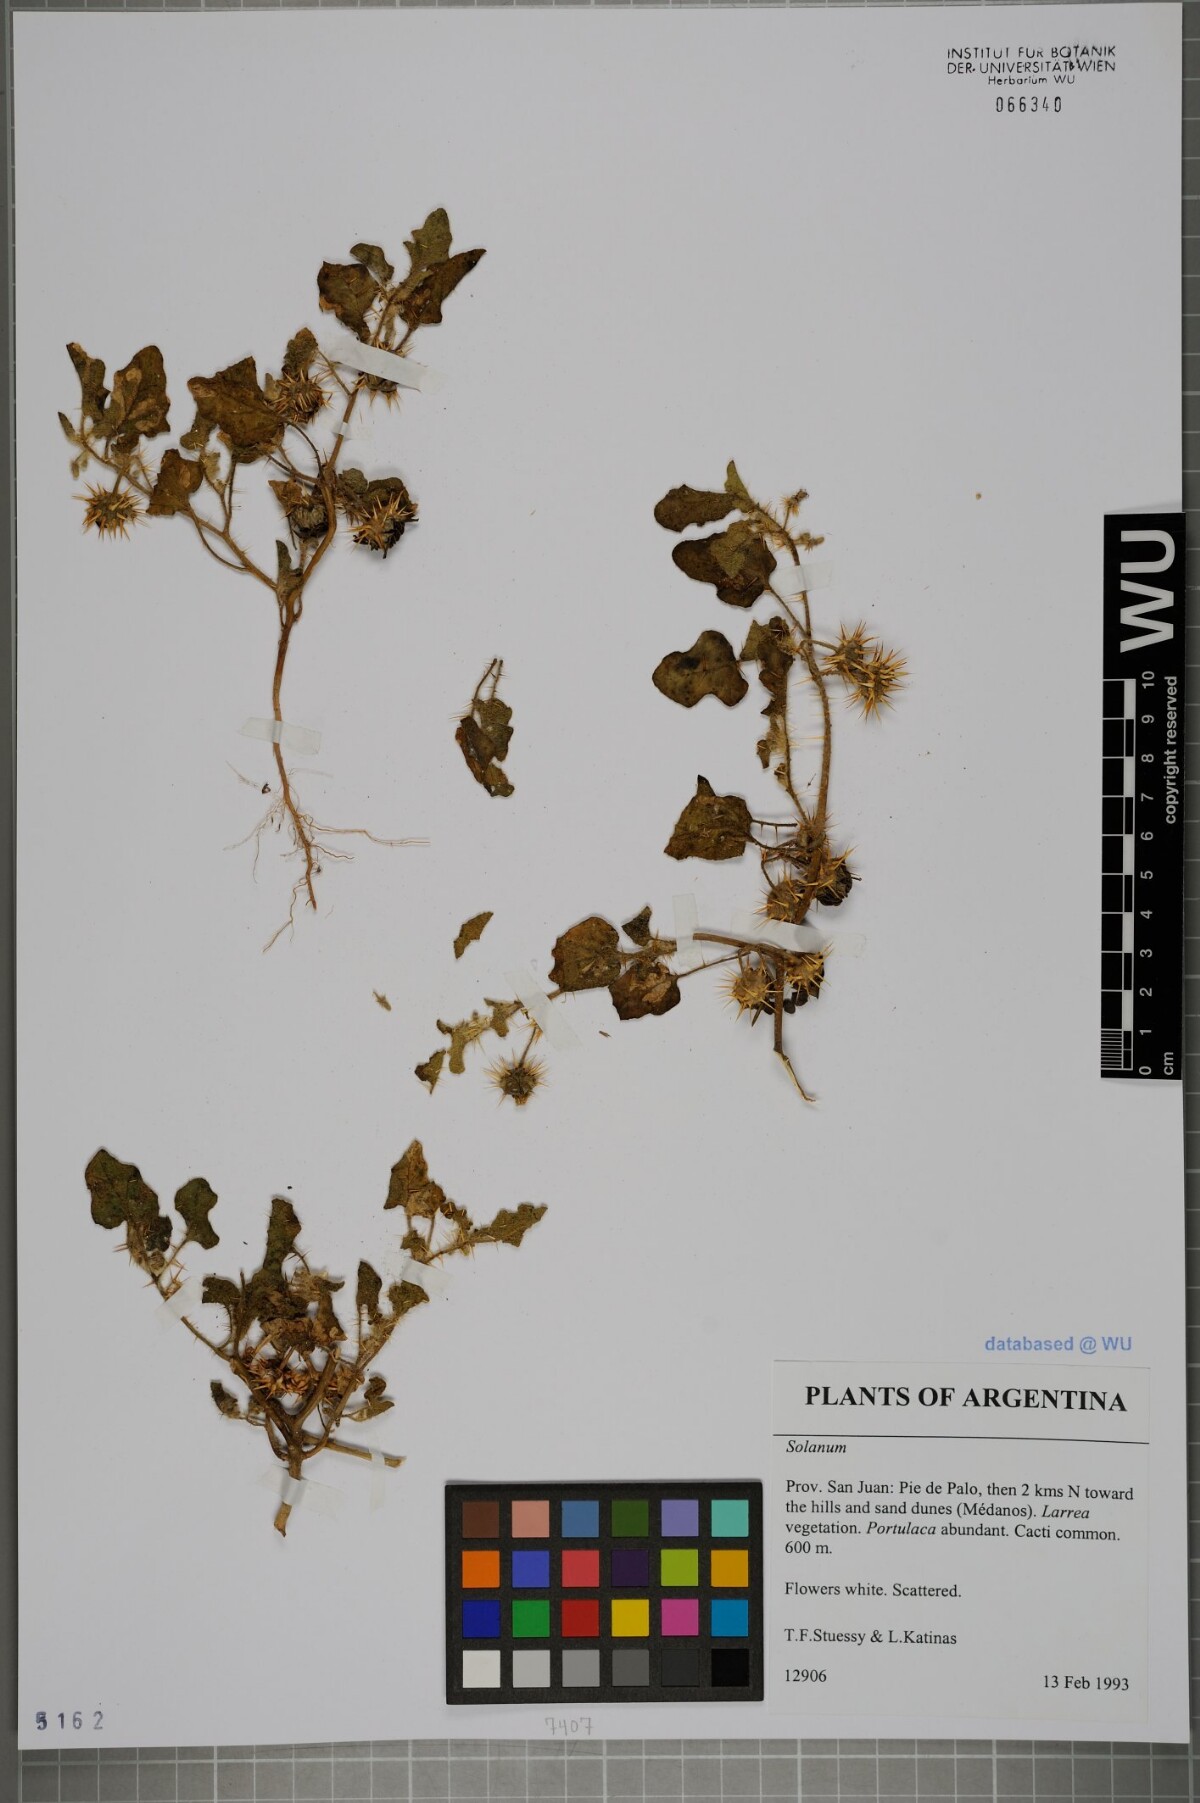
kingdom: Plantae
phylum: Tracheophyta
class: Magnoliopsida
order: Solanales
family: Solanaceae
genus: Solanum
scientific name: Solanum
